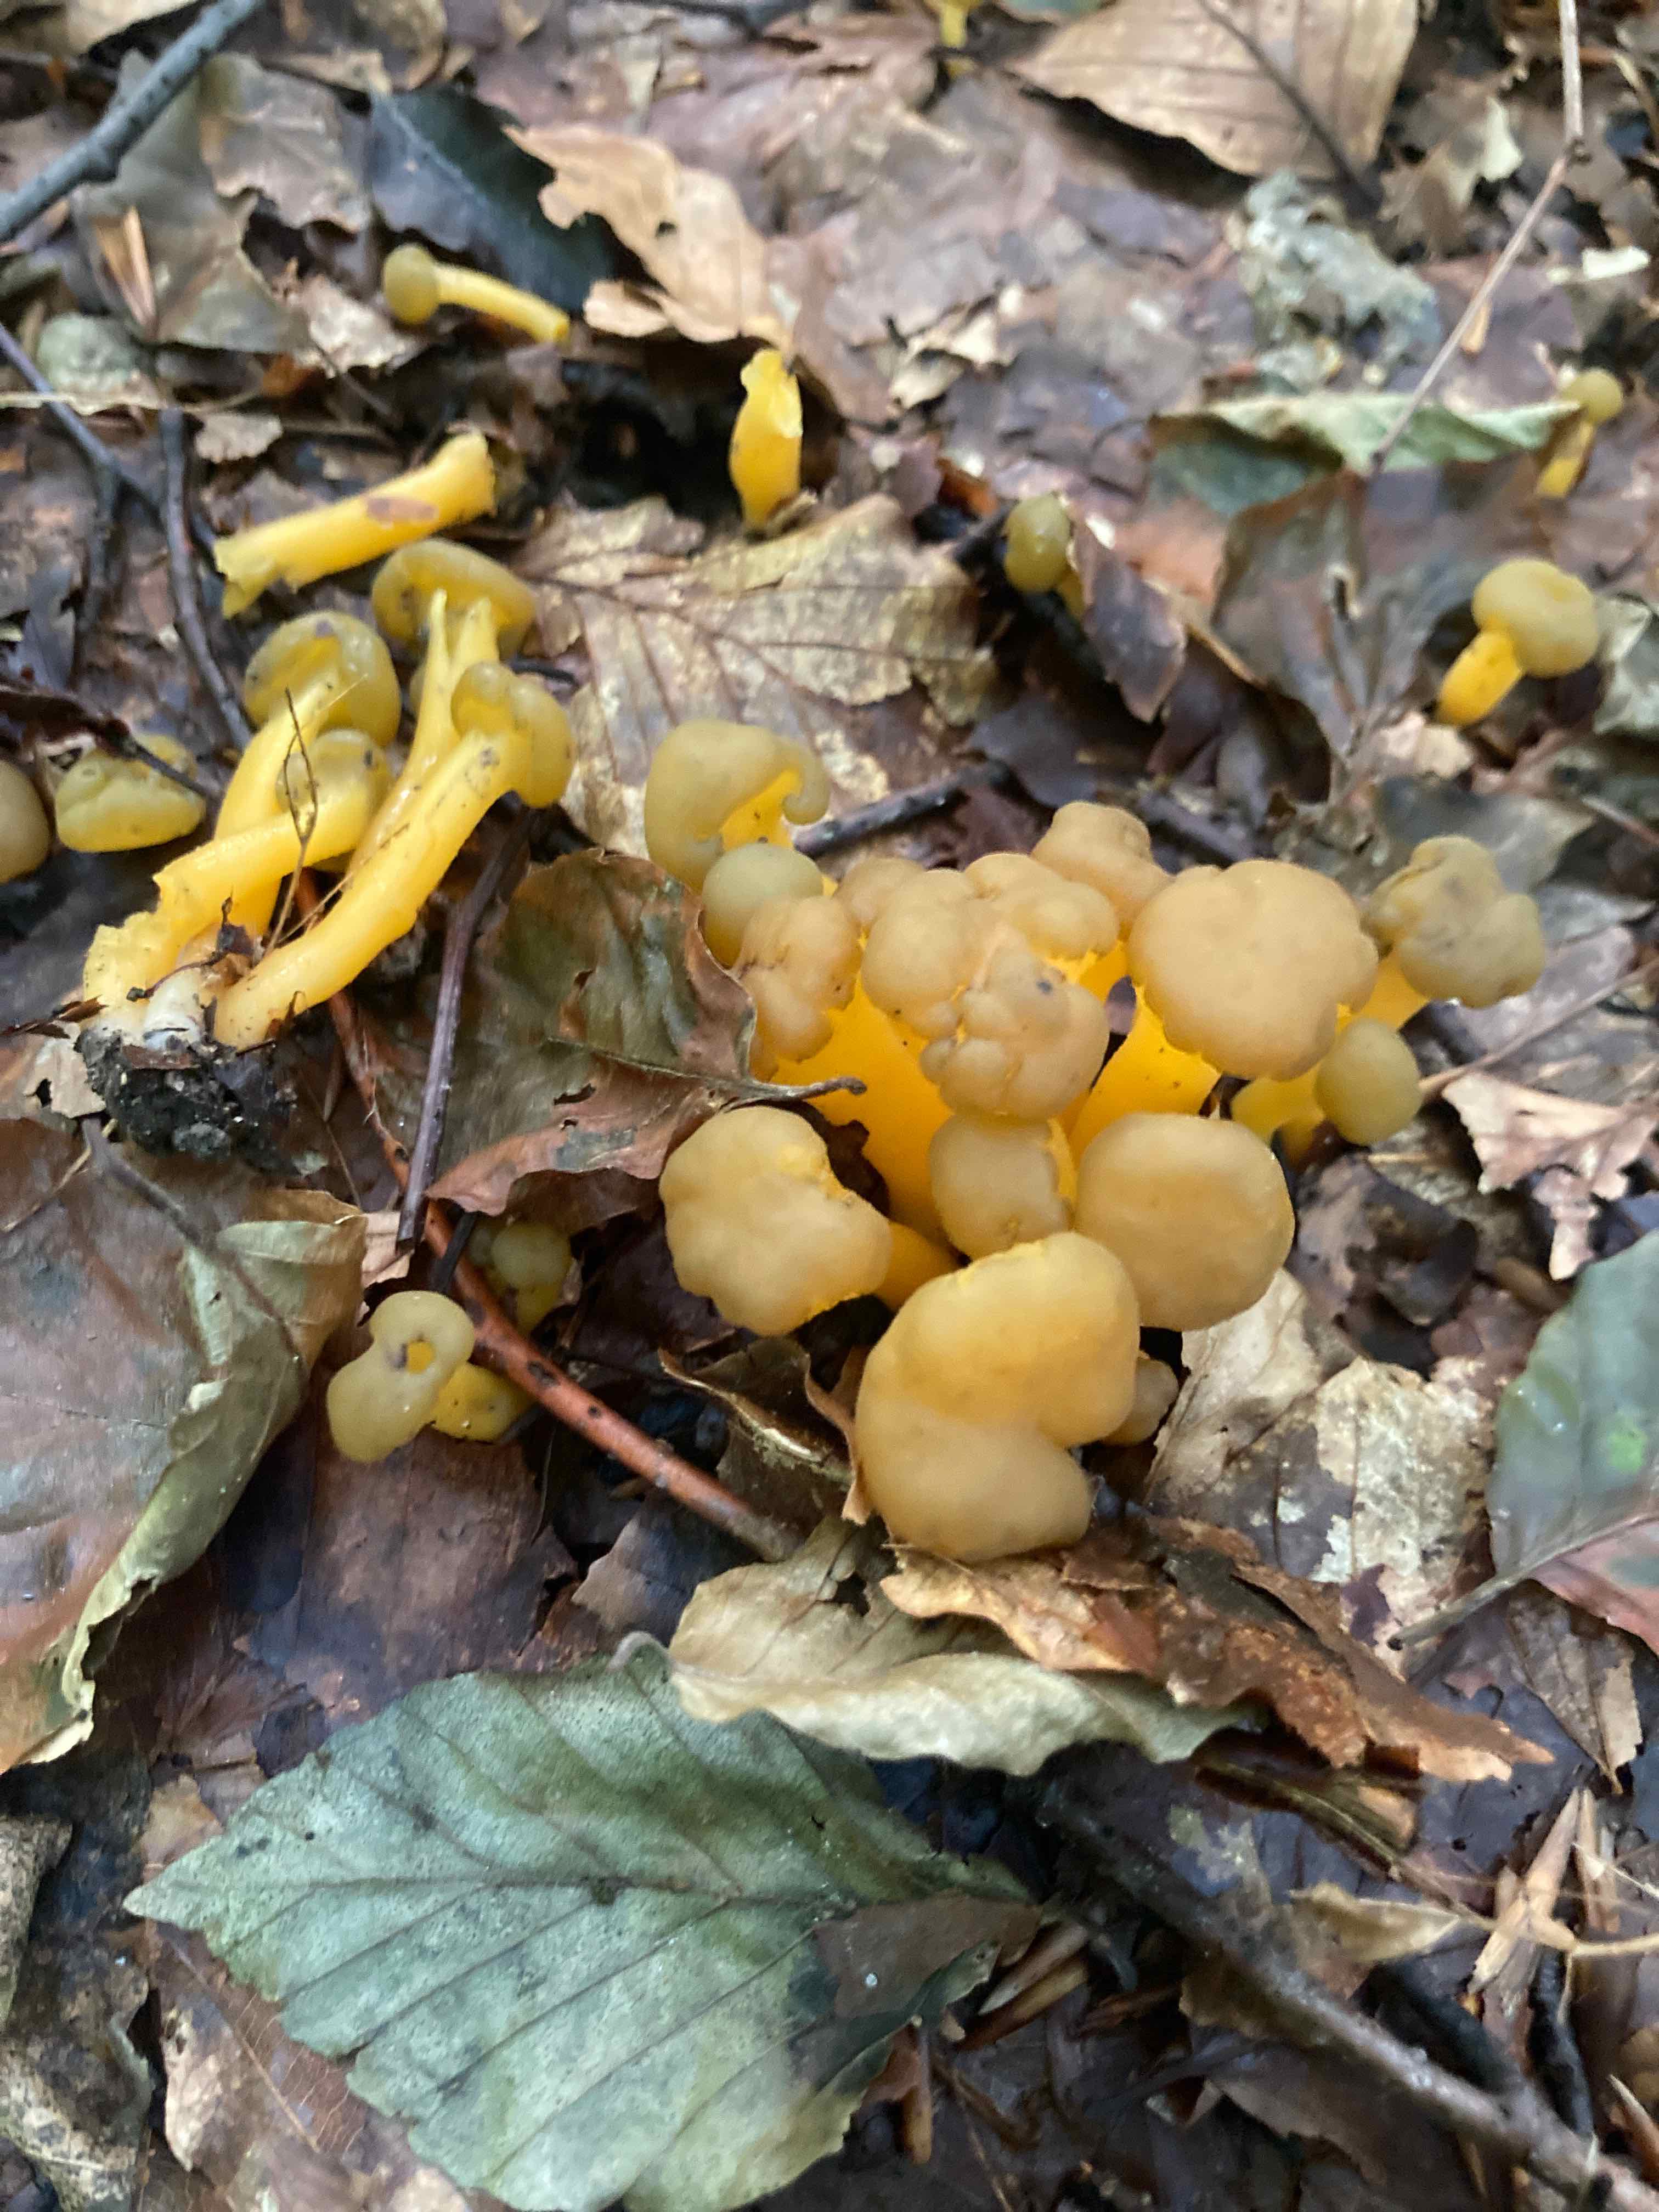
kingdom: Fungi
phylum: Ascomycota
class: Leotiomycetes
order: Leotiales
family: Leotiaceae
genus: Leotia
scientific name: Leotia lubrica
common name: ravsvamp
